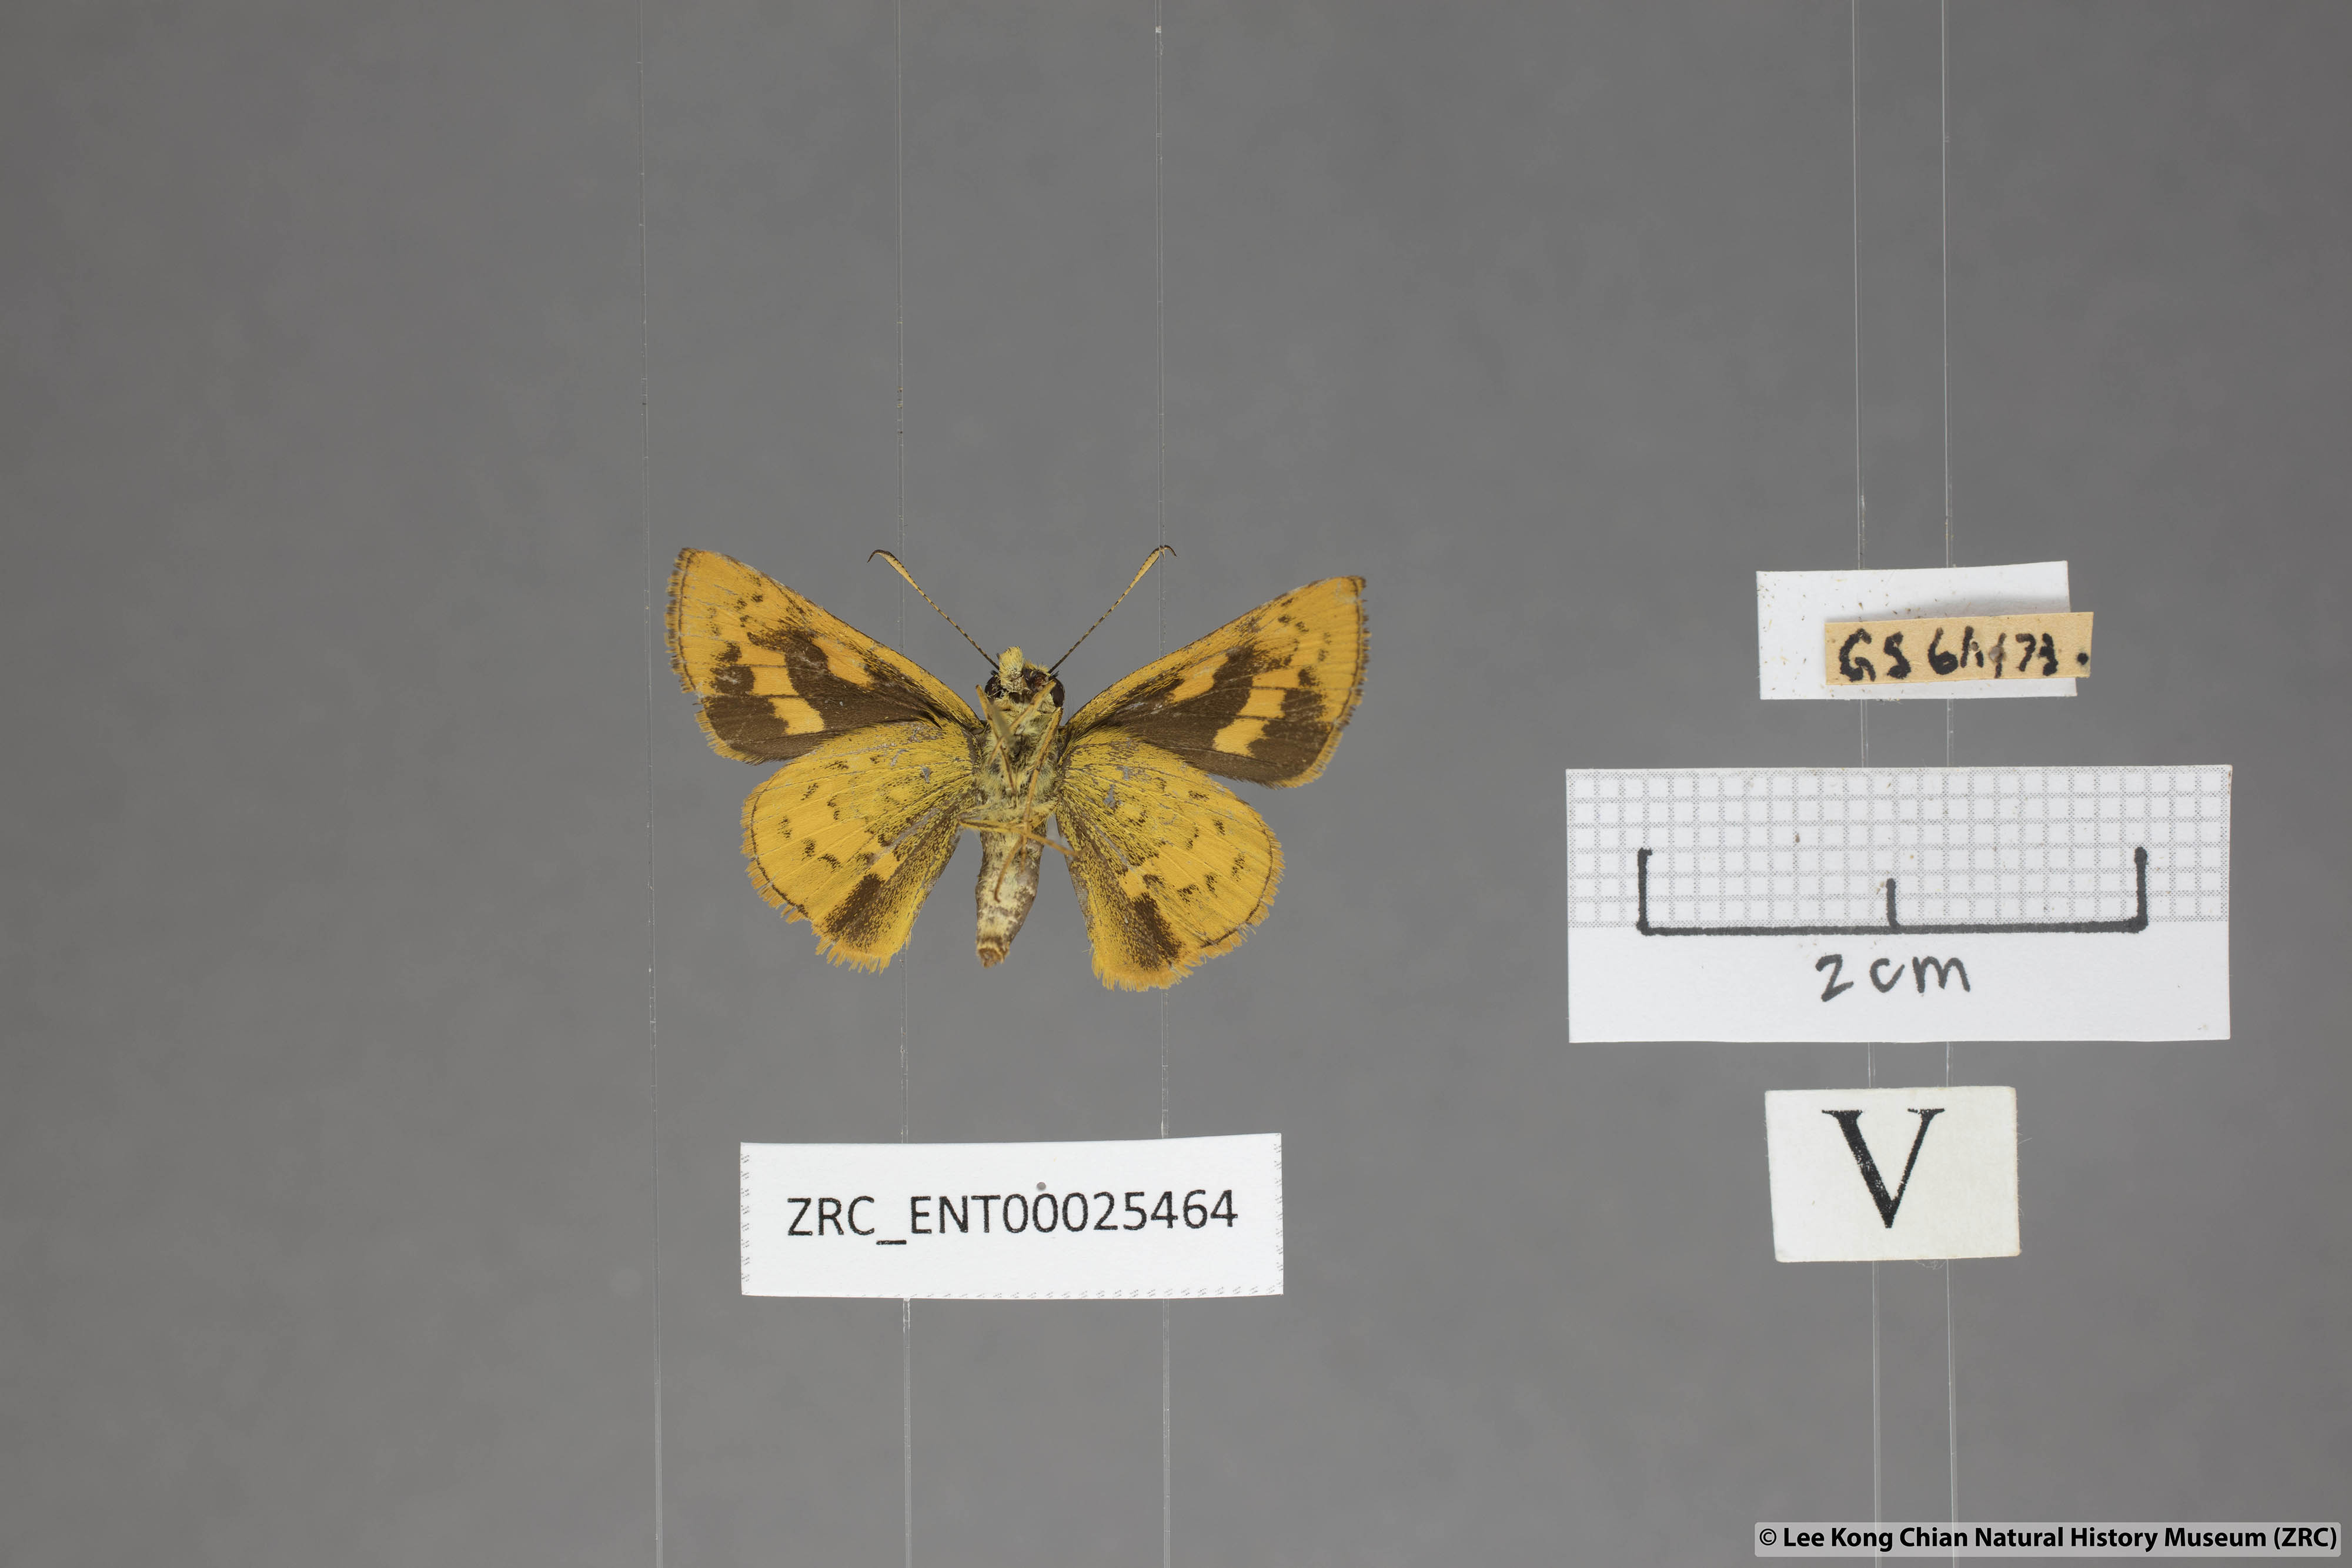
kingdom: Animalia
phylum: Arthropoda
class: Insecta
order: Lepidoptera
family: Hesperiidae
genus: Potanthus
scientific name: Potanthus rectifasciata
